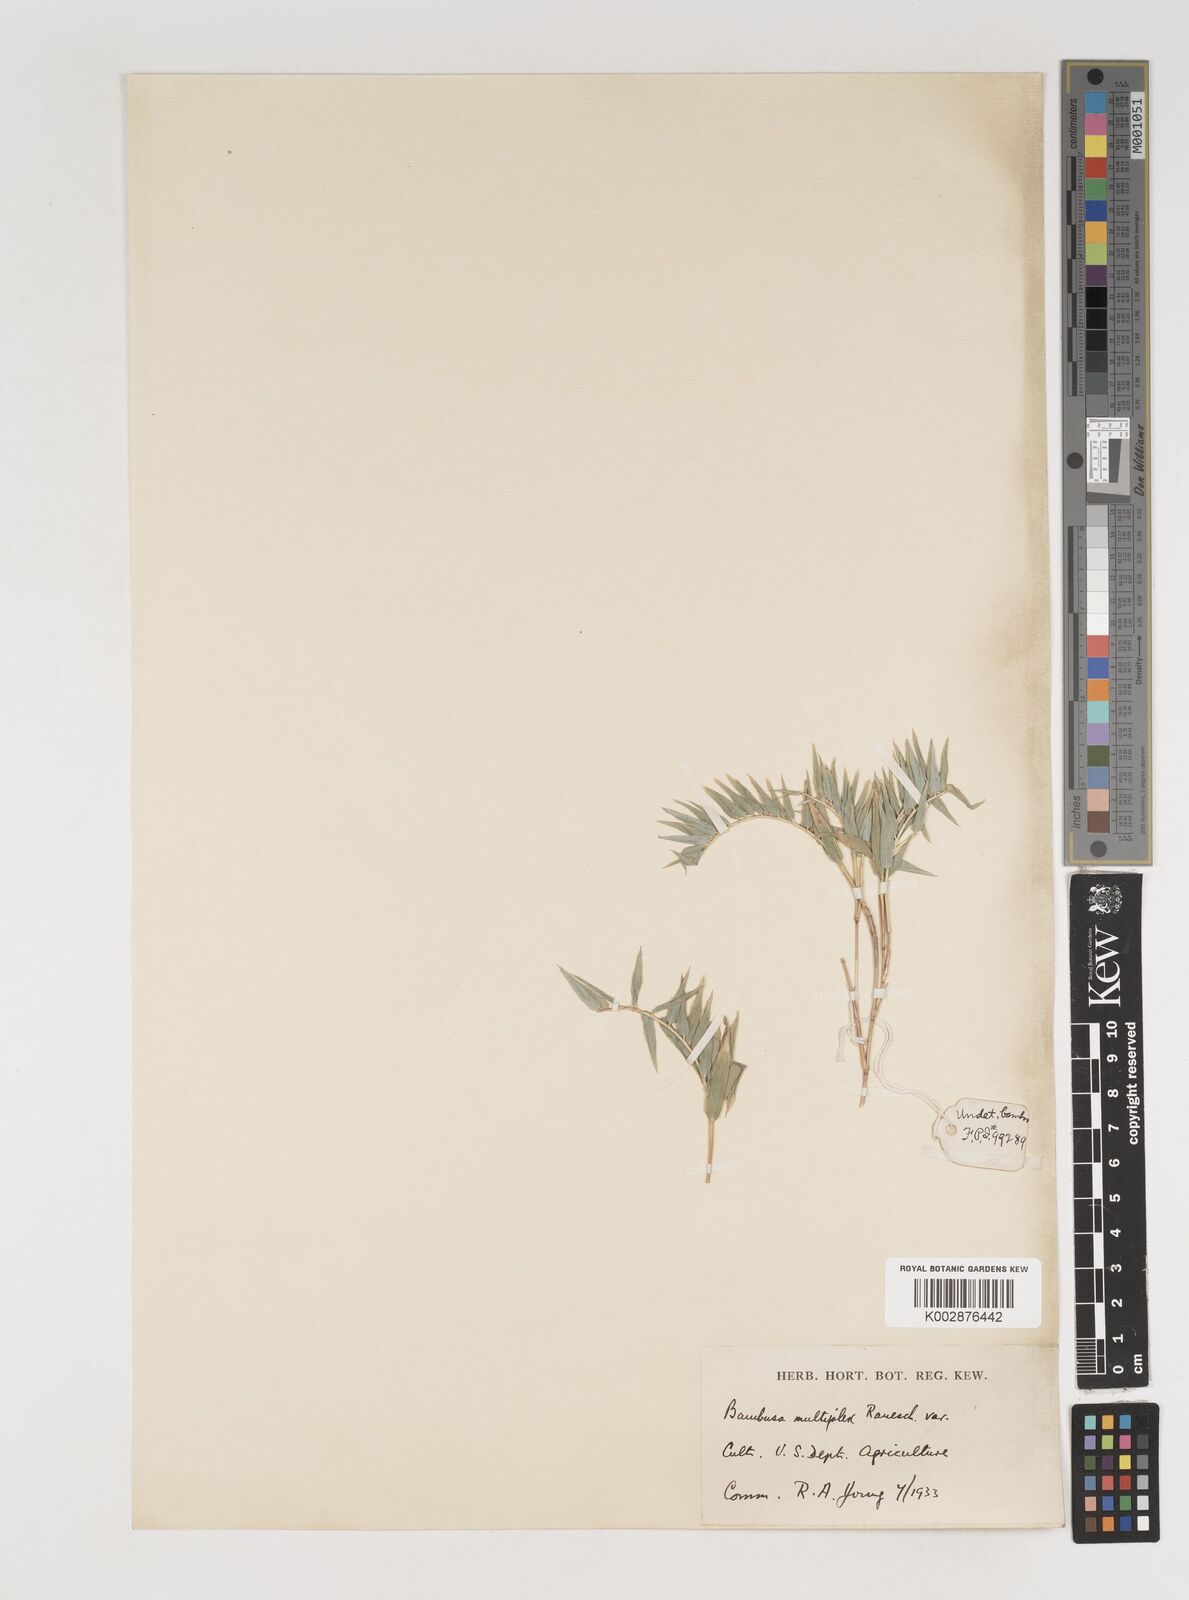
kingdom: Plantae
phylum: Tracheophyta
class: Liliopsida
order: Poales
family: Poaceae
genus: Bambusa
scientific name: Bambusa multiplex
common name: Hedge bamboo
